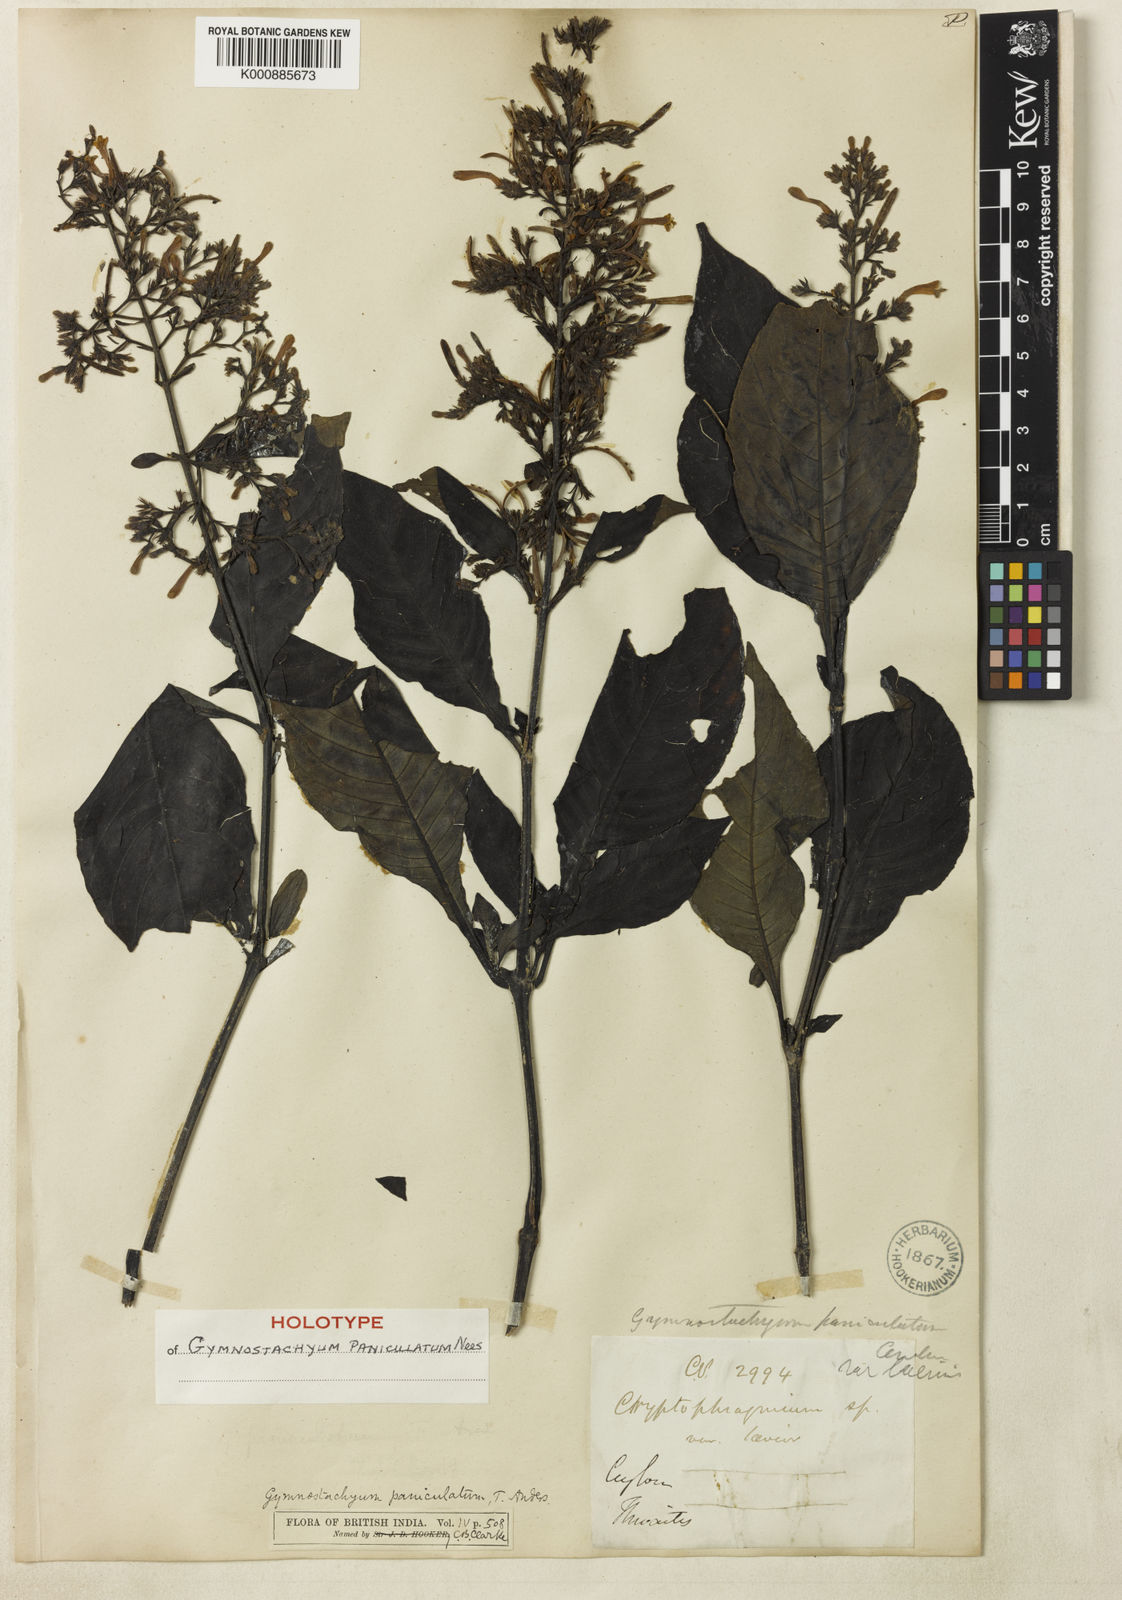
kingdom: Plantae
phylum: Tracheophyta
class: Magnoliopsida
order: Lamiales
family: Acanthaceae
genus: Gymnostachyum
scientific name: Gymnostachyum paniculatum
